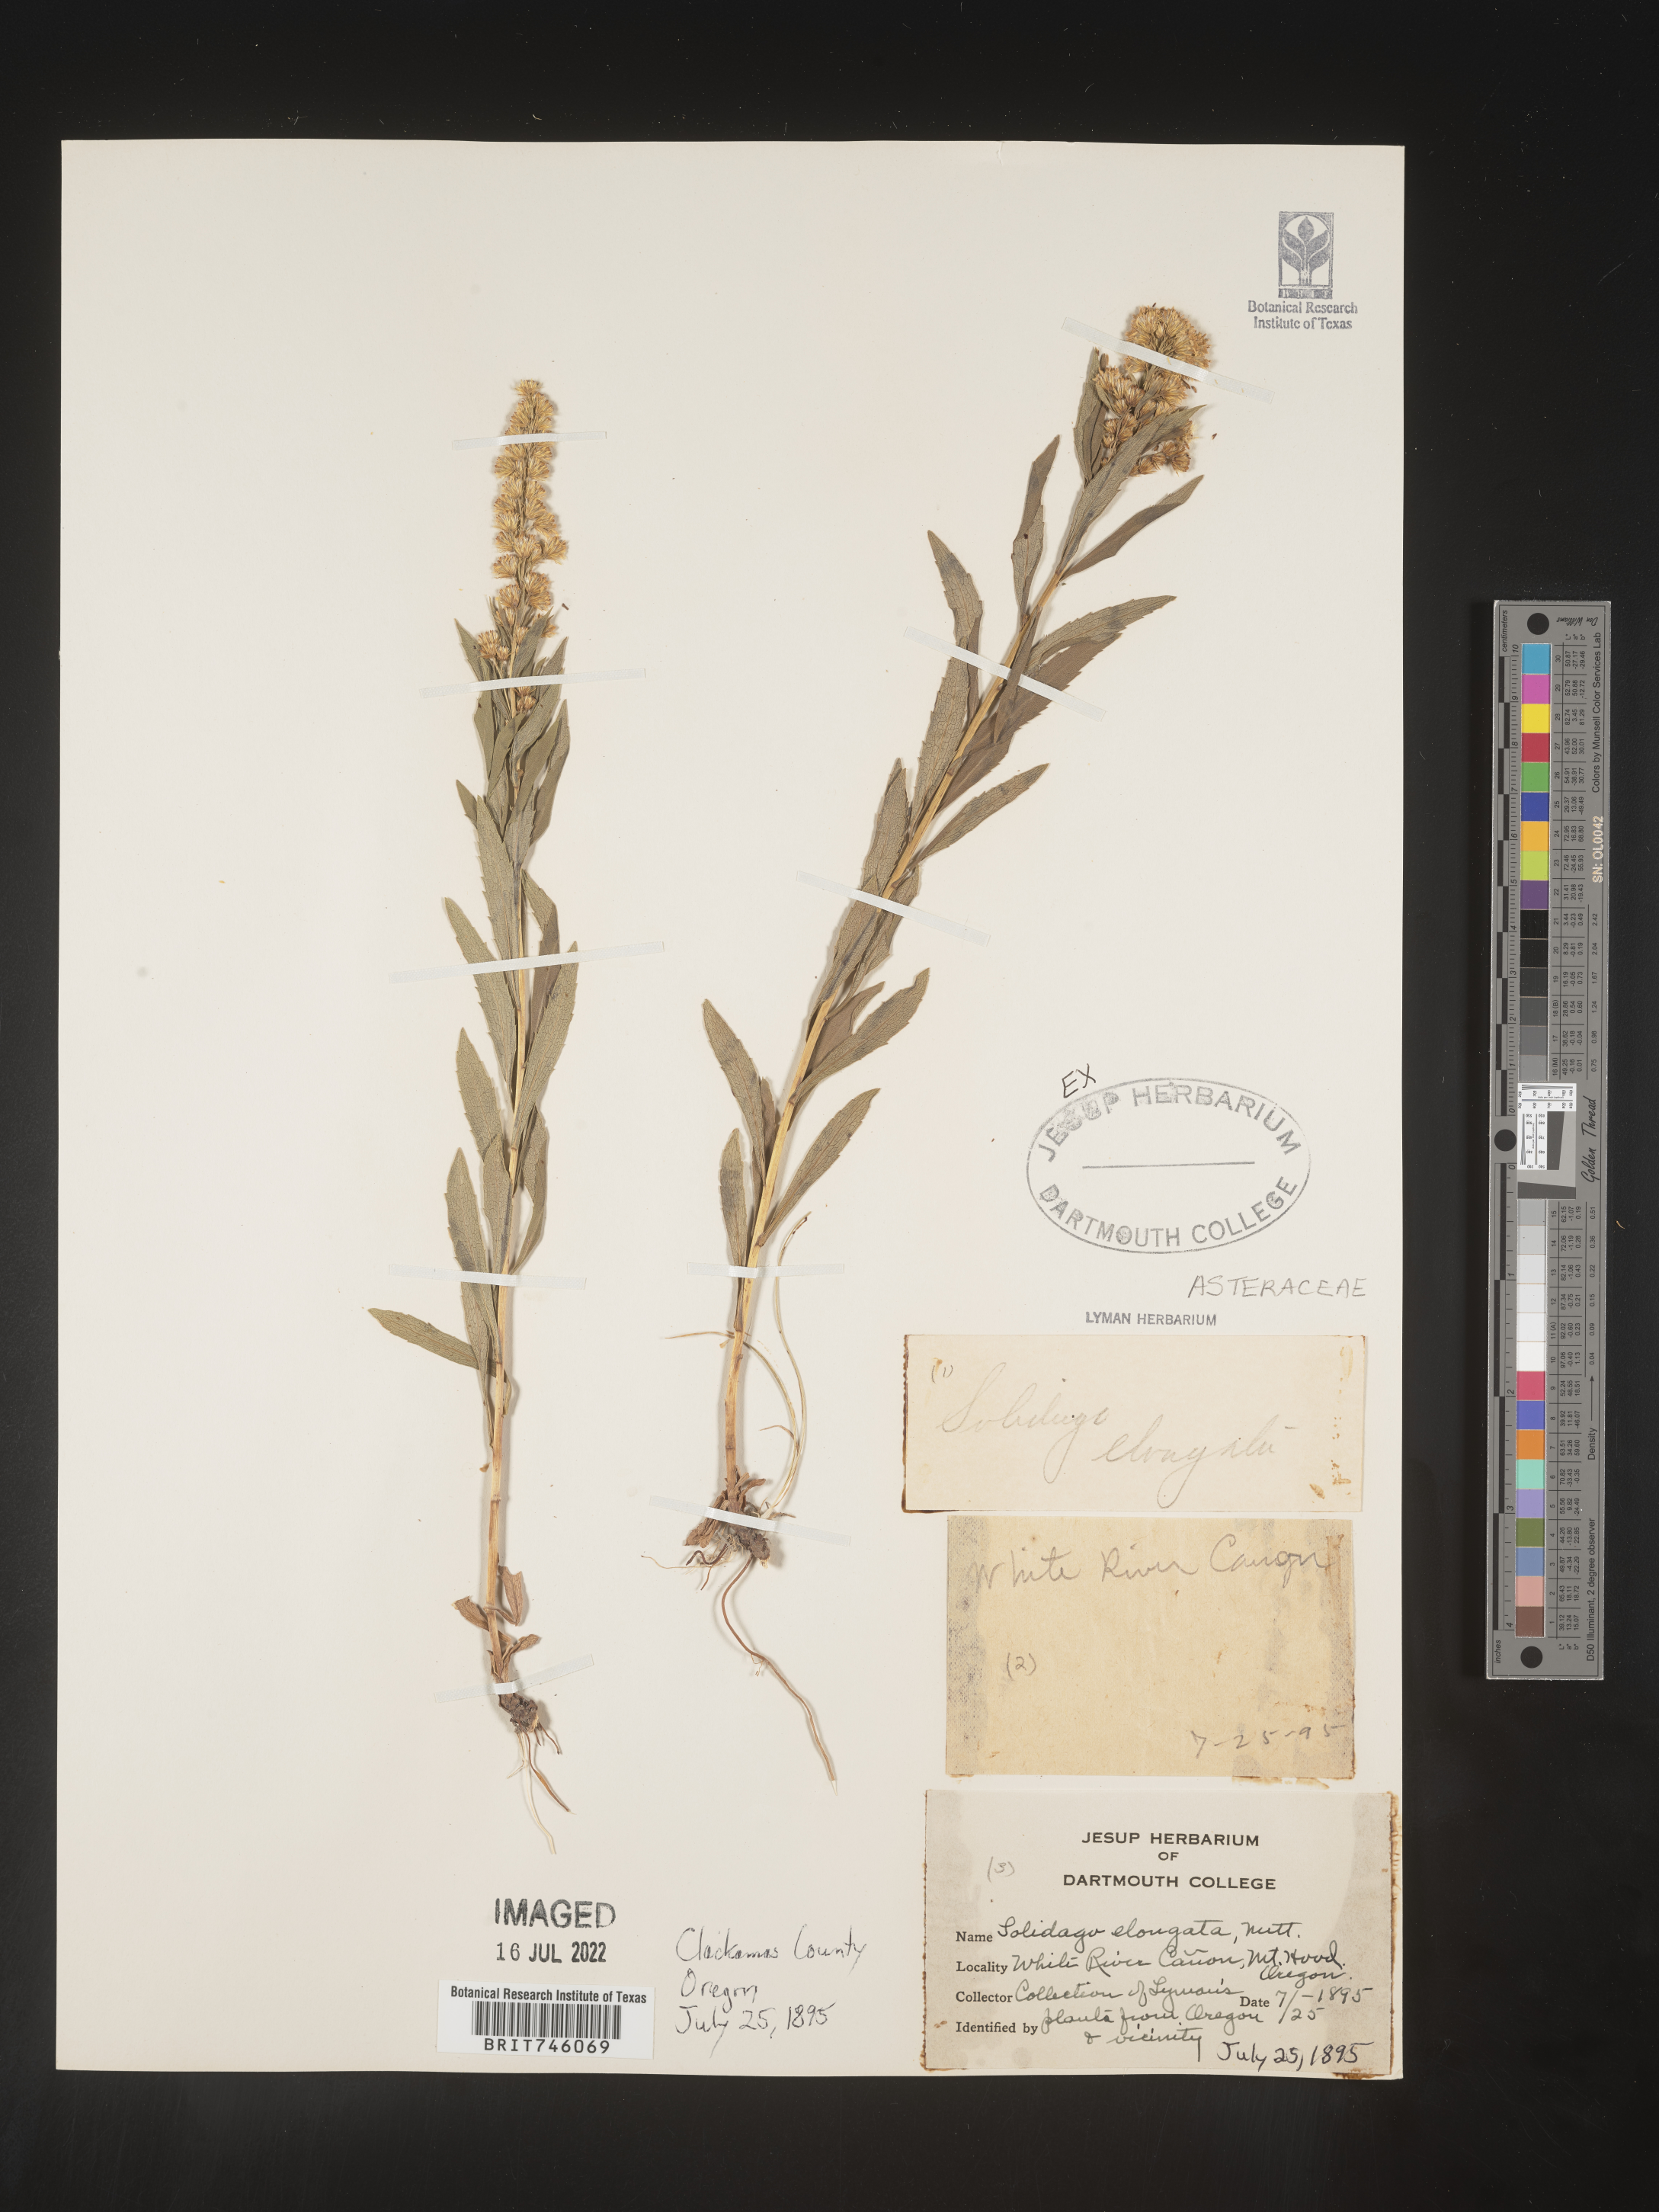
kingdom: Plantae
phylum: Tracheophyta
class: Magnoliopsida
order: Asterales
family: Asteraceae
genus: Solidago
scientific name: Solidago elongata
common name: Cascade canada goldenrod
